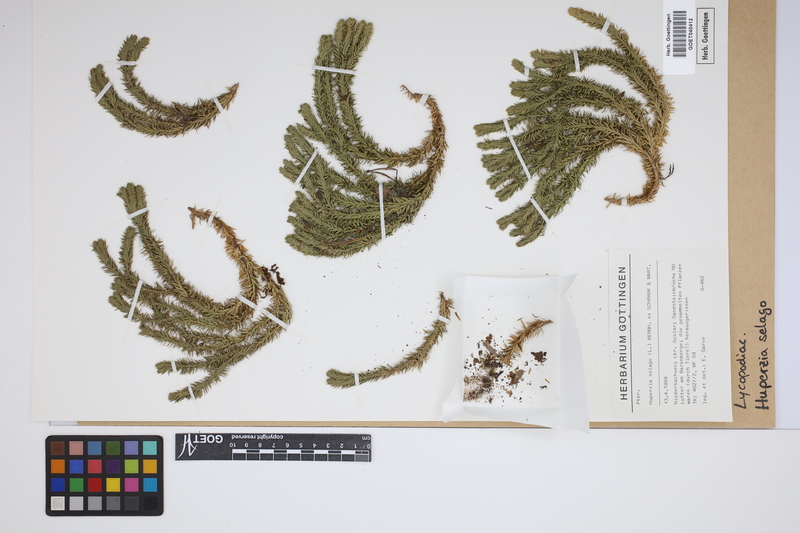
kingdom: Plantae
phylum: Tracheophyta
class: Lycopodiopsida
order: Lycopodiales
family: Lycopodiaceae
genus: Huperzia
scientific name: Huperzia selago
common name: Northern firmoss
